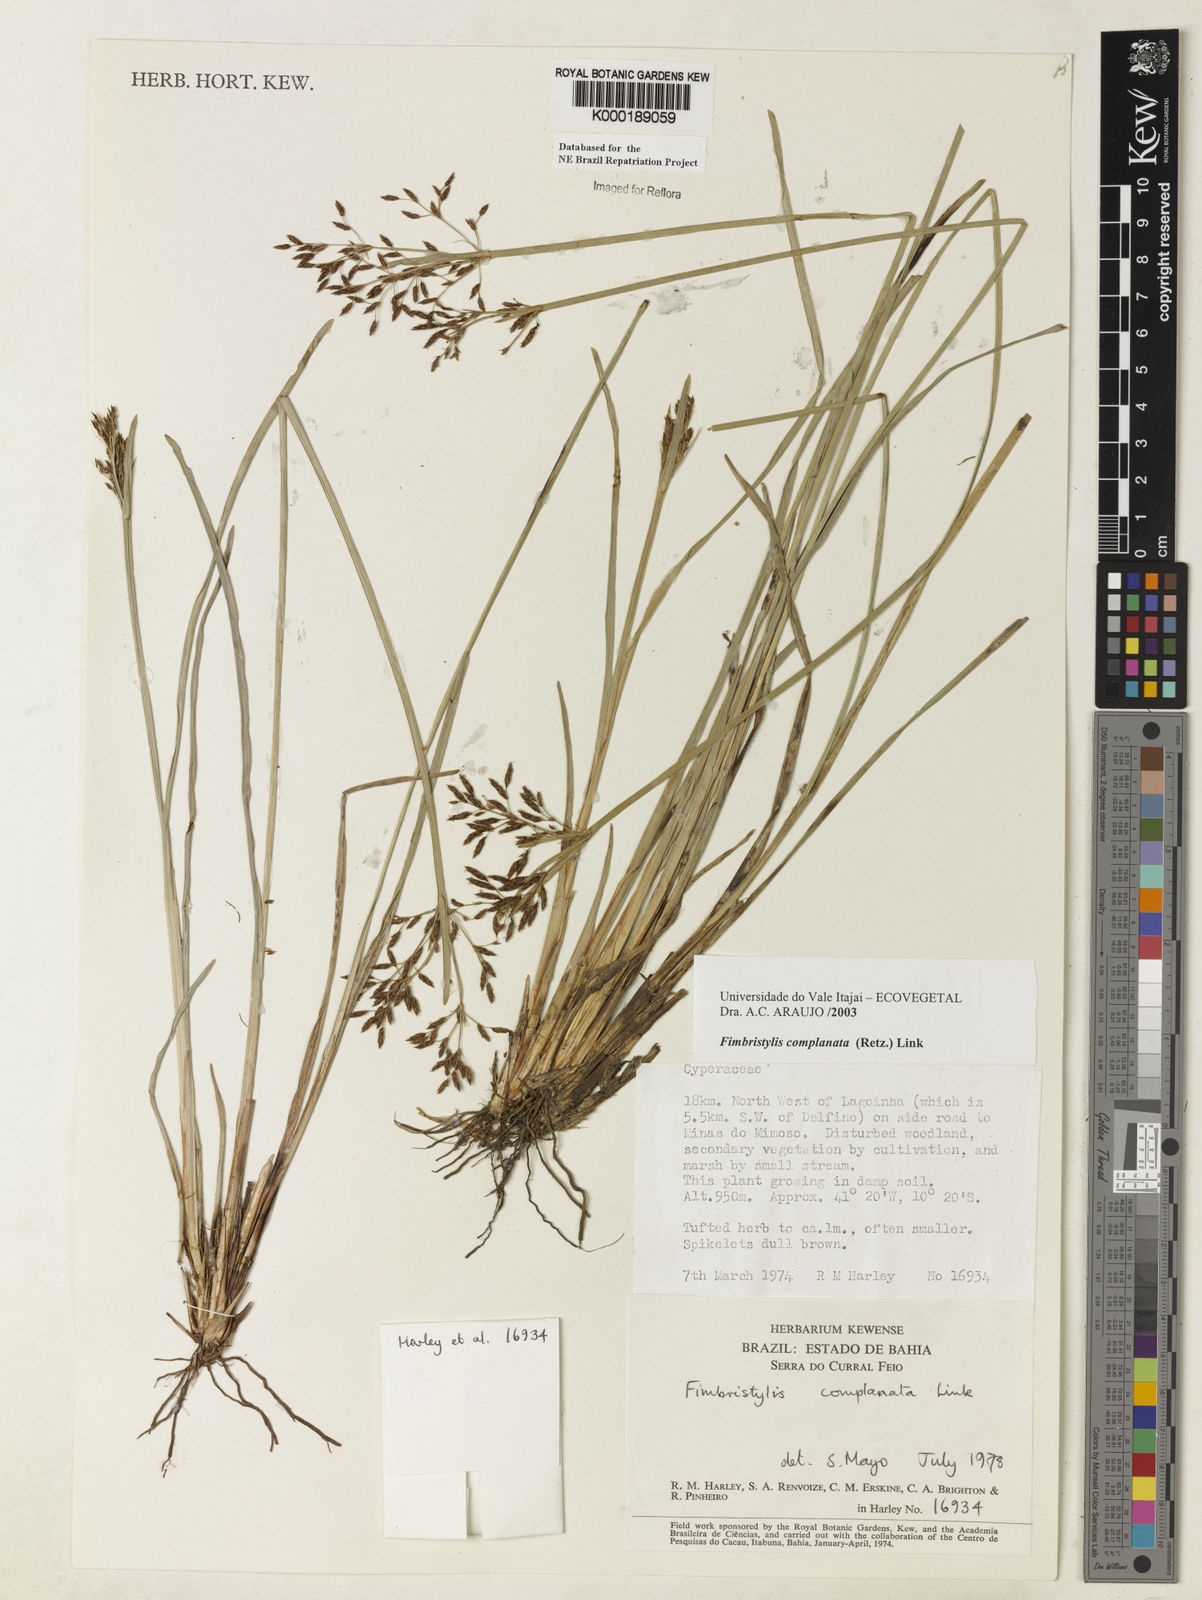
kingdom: Plantae
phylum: Tracheophyta
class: Liliopsida
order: Poales
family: Cyperaceae
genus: Fimbristylis
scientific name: Fimbristylis complanata
